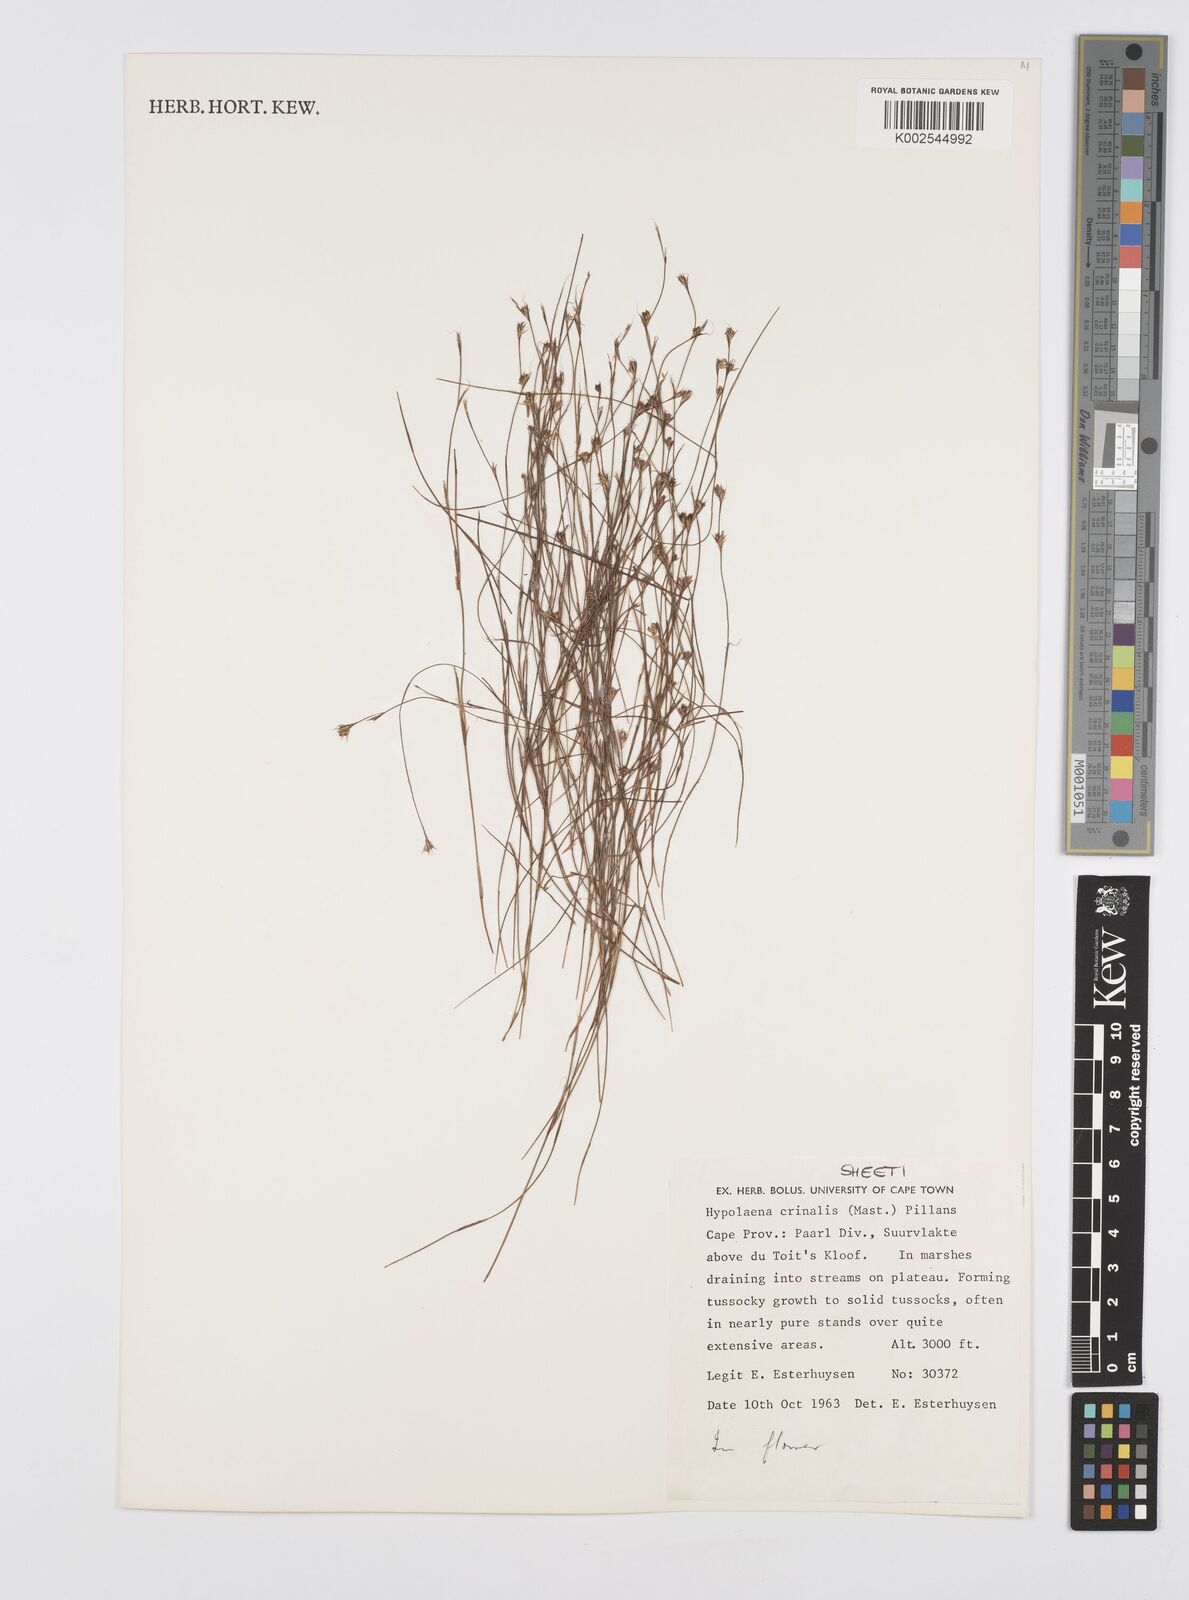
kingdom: Plantae
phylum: Tracheophyta
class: Liliopsida
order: Poales
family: Restionaceae
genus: Anthochortus
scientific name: Anthochortus crinalis
